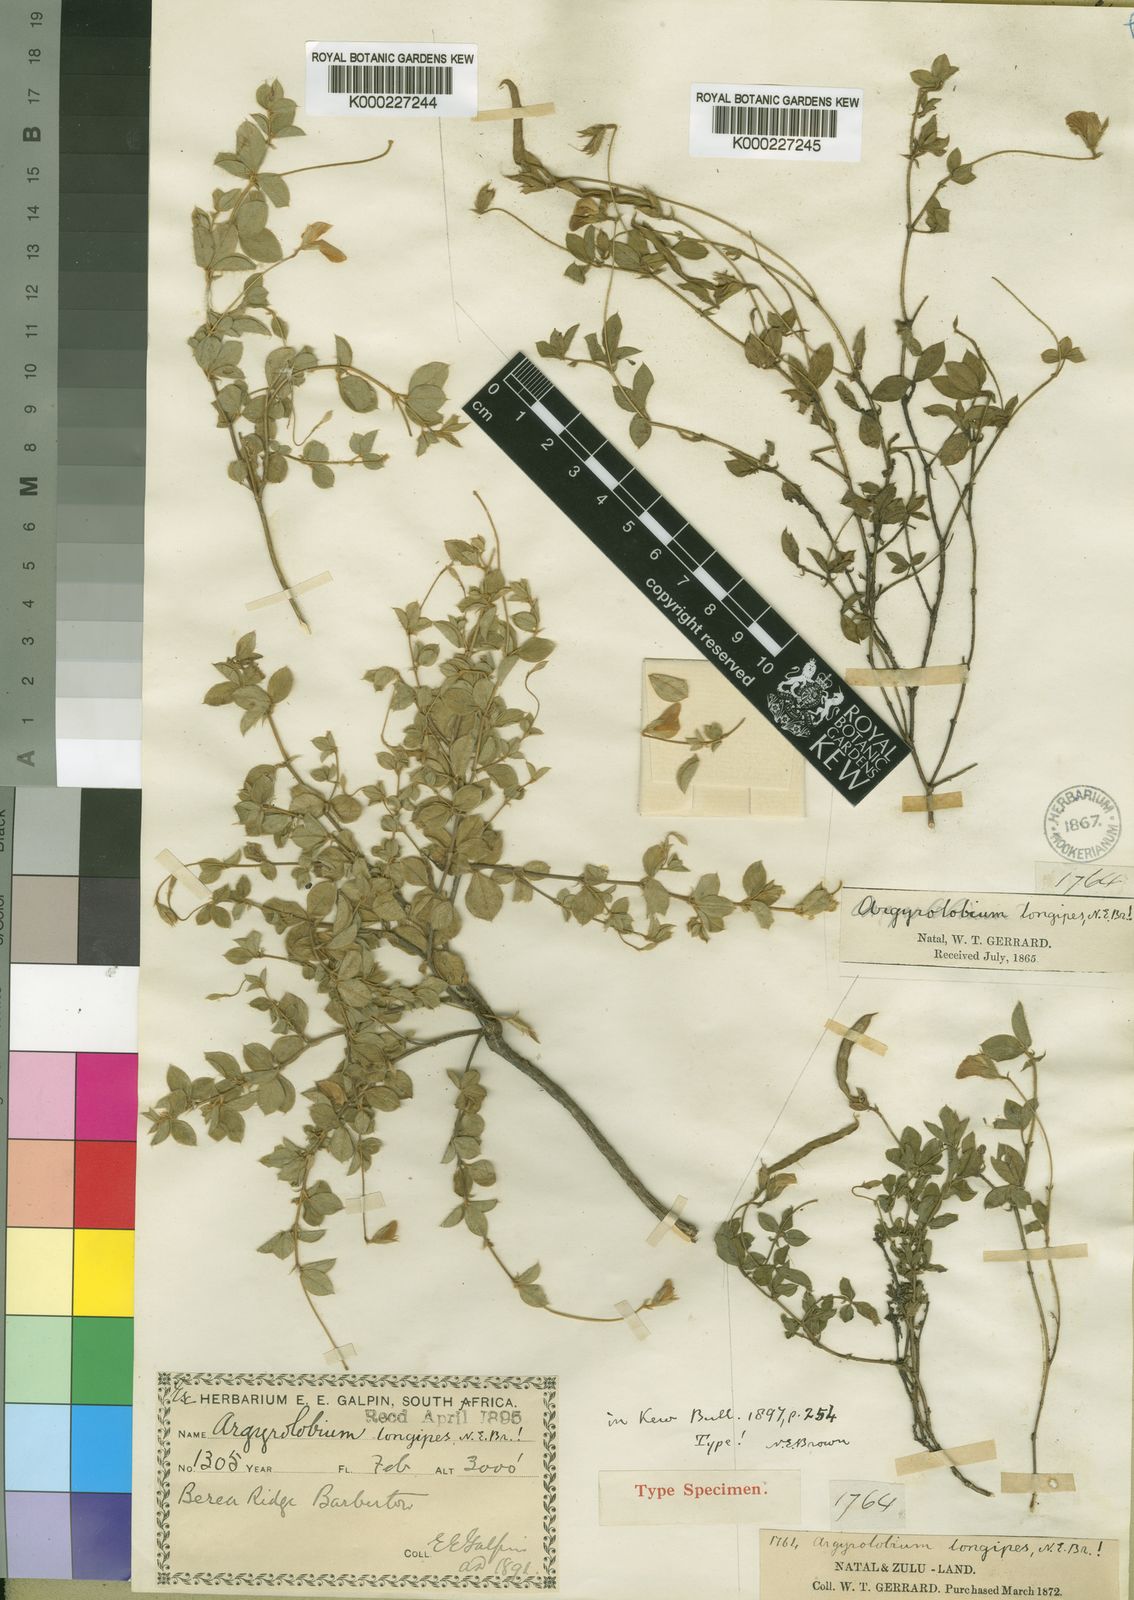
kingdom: Plantae
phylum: Tracheophyta
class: Magnoliopsida
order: Fabales
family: Fabaceae
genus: Argyrolobium
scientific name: Argyrolobium ascendens
